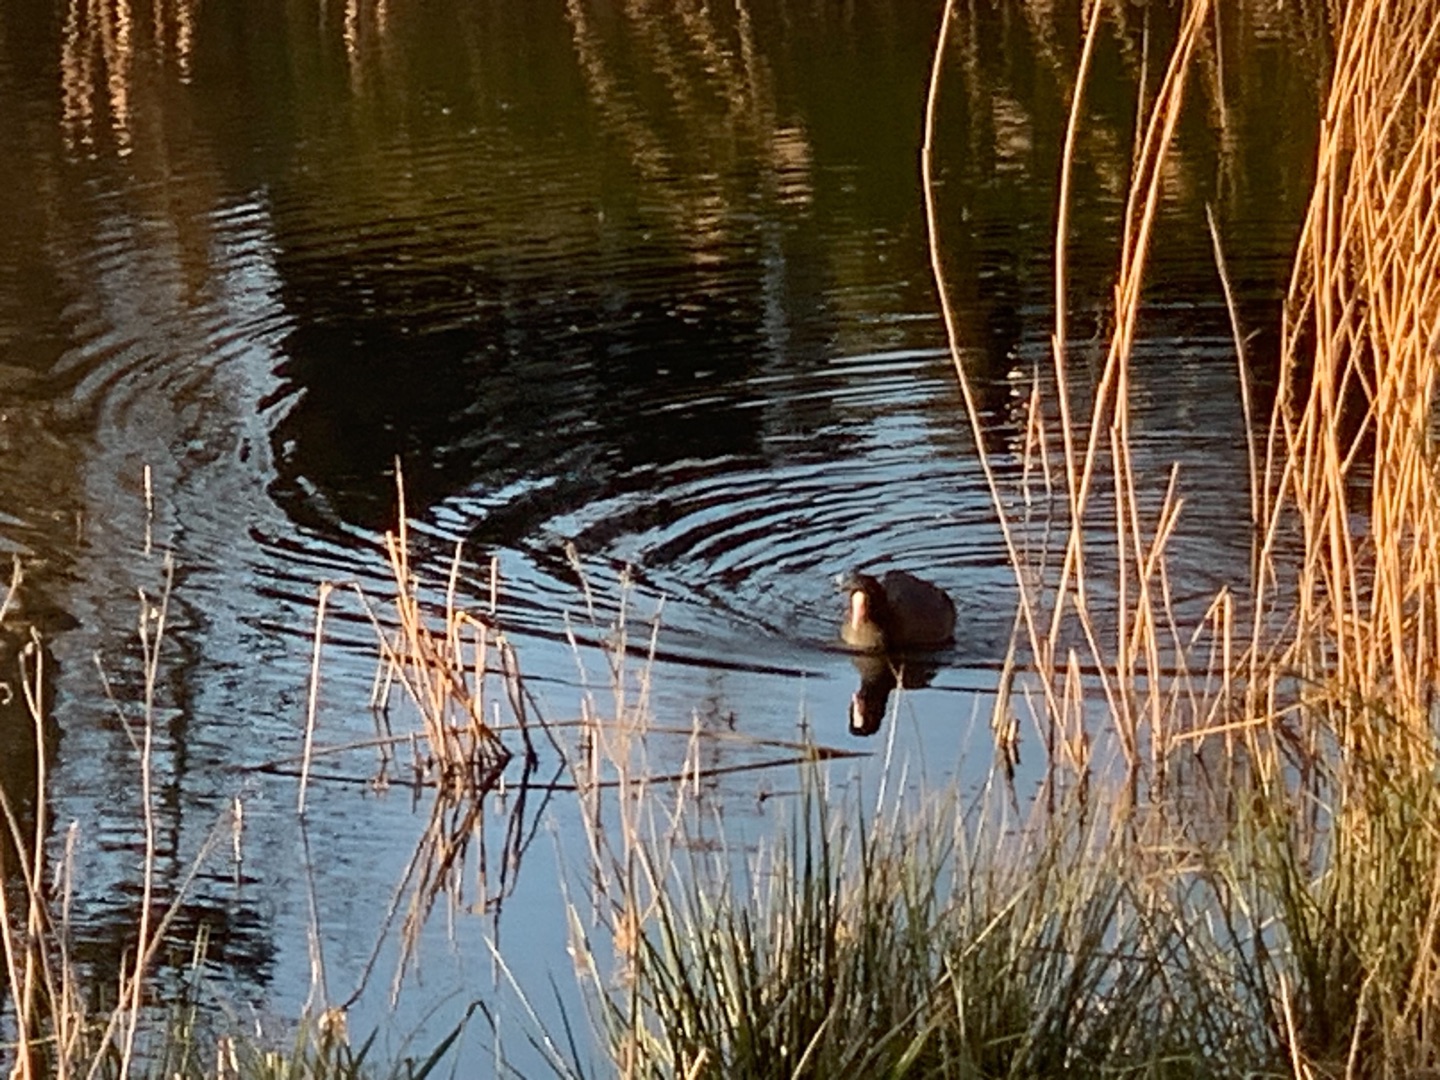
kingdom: Animalia
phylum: Chordata
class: Aves
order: Gruiformes
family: Rallidae
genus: Fulica
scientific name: Fulica atra
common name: Blishøne
